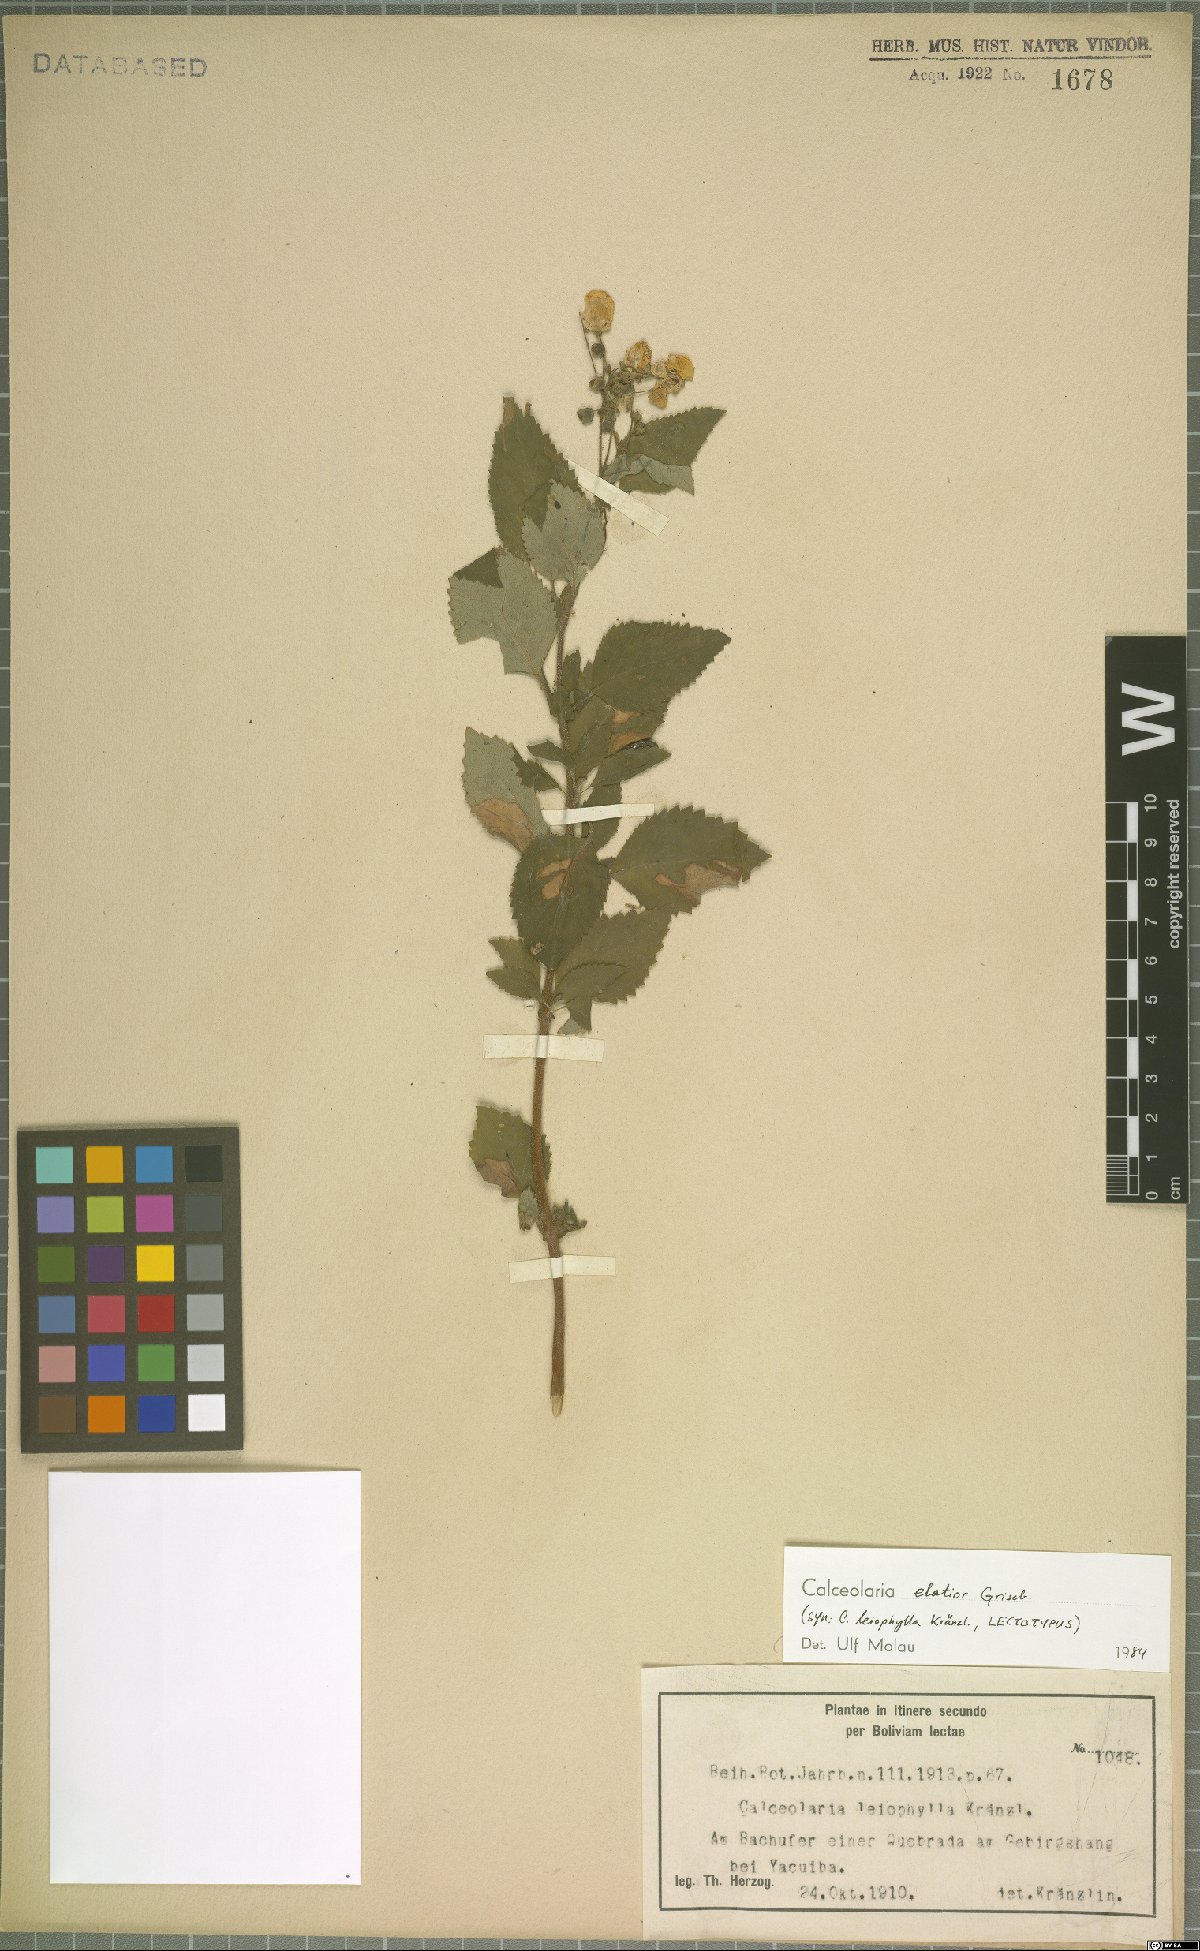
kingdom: Plantae
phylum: Tracheophyta
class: Magnoliopsida
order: Lamiales
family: Calceolariaceae
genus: Calceolaria
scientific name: Calceolaria elatior
